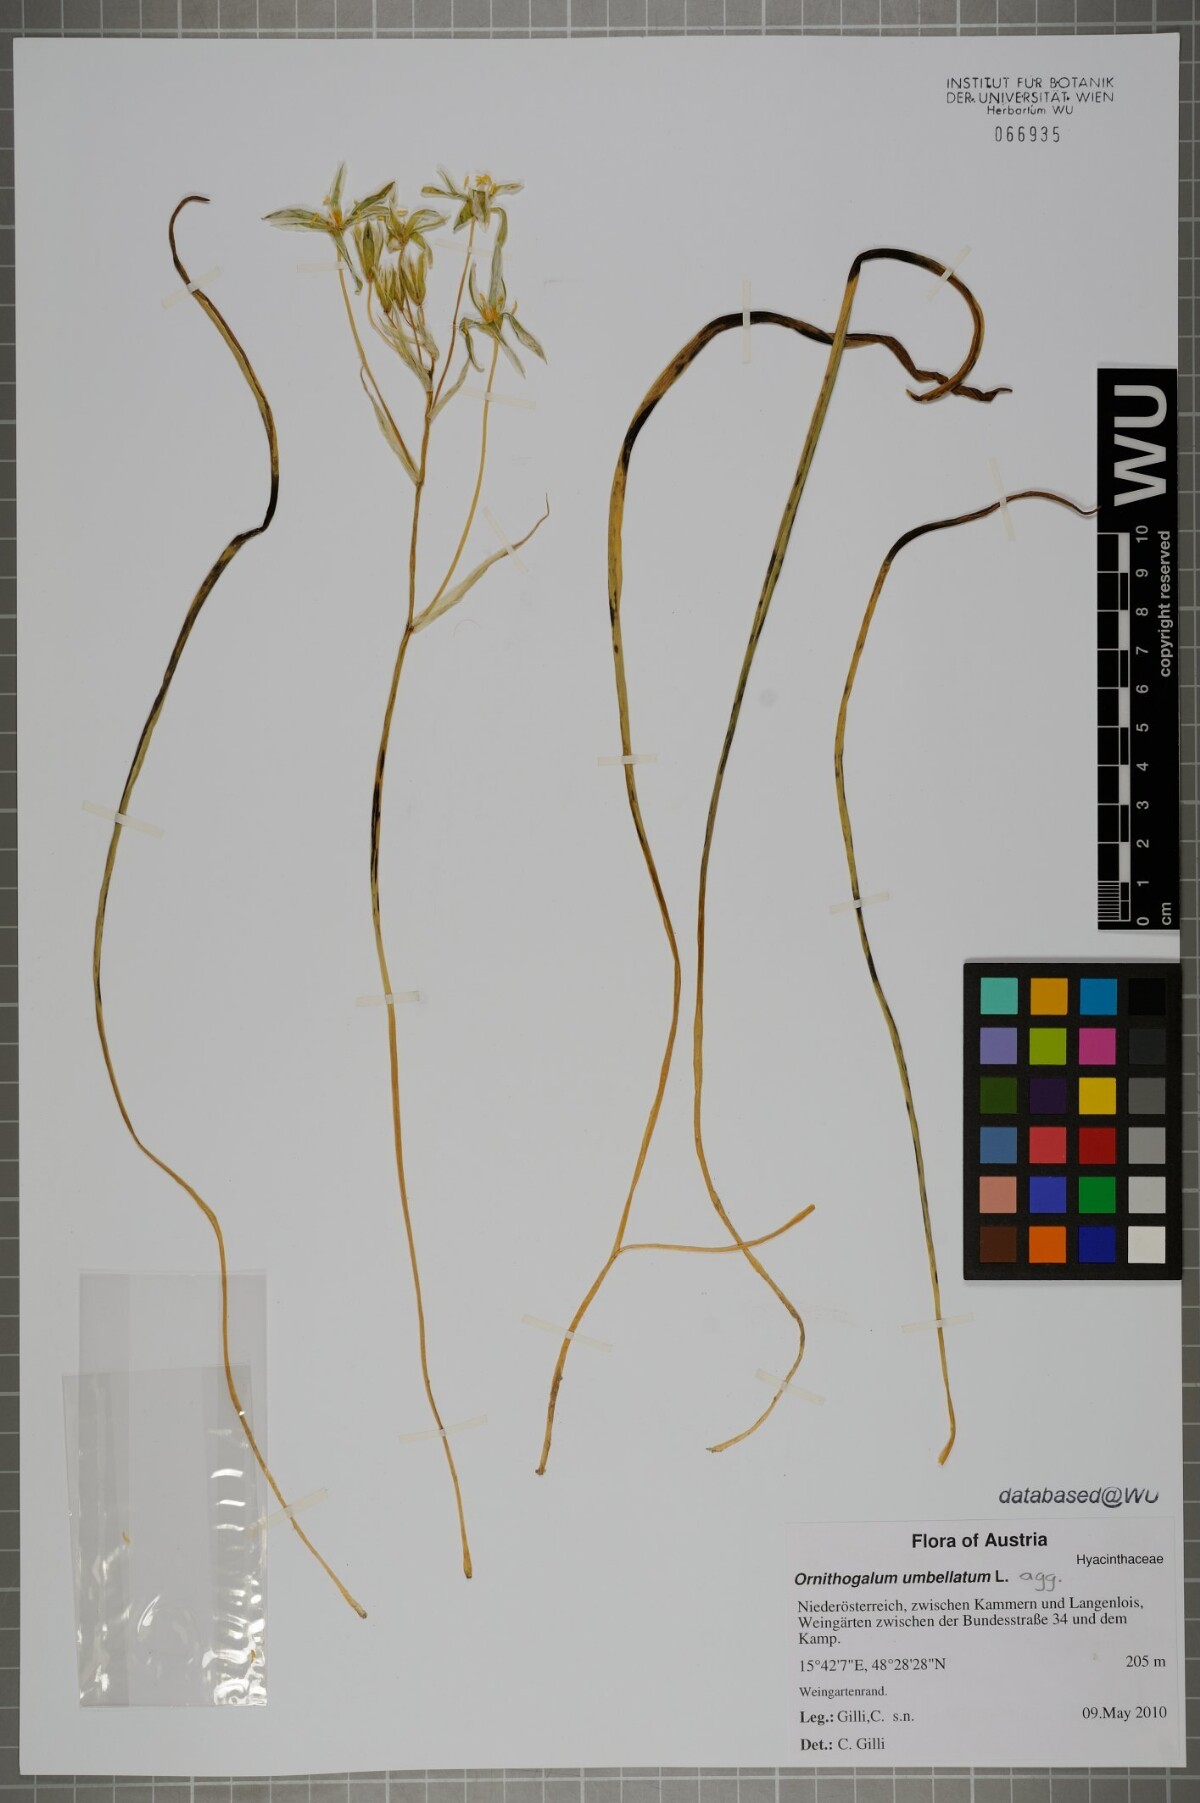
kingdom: Plantae
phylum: Tracheophyta
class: Liliopsida
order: Asparagales
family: Asparagaceae
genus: Ornithogalum
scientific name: Ornithogalum umbellatum
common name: Garden star-of-bethlehem
